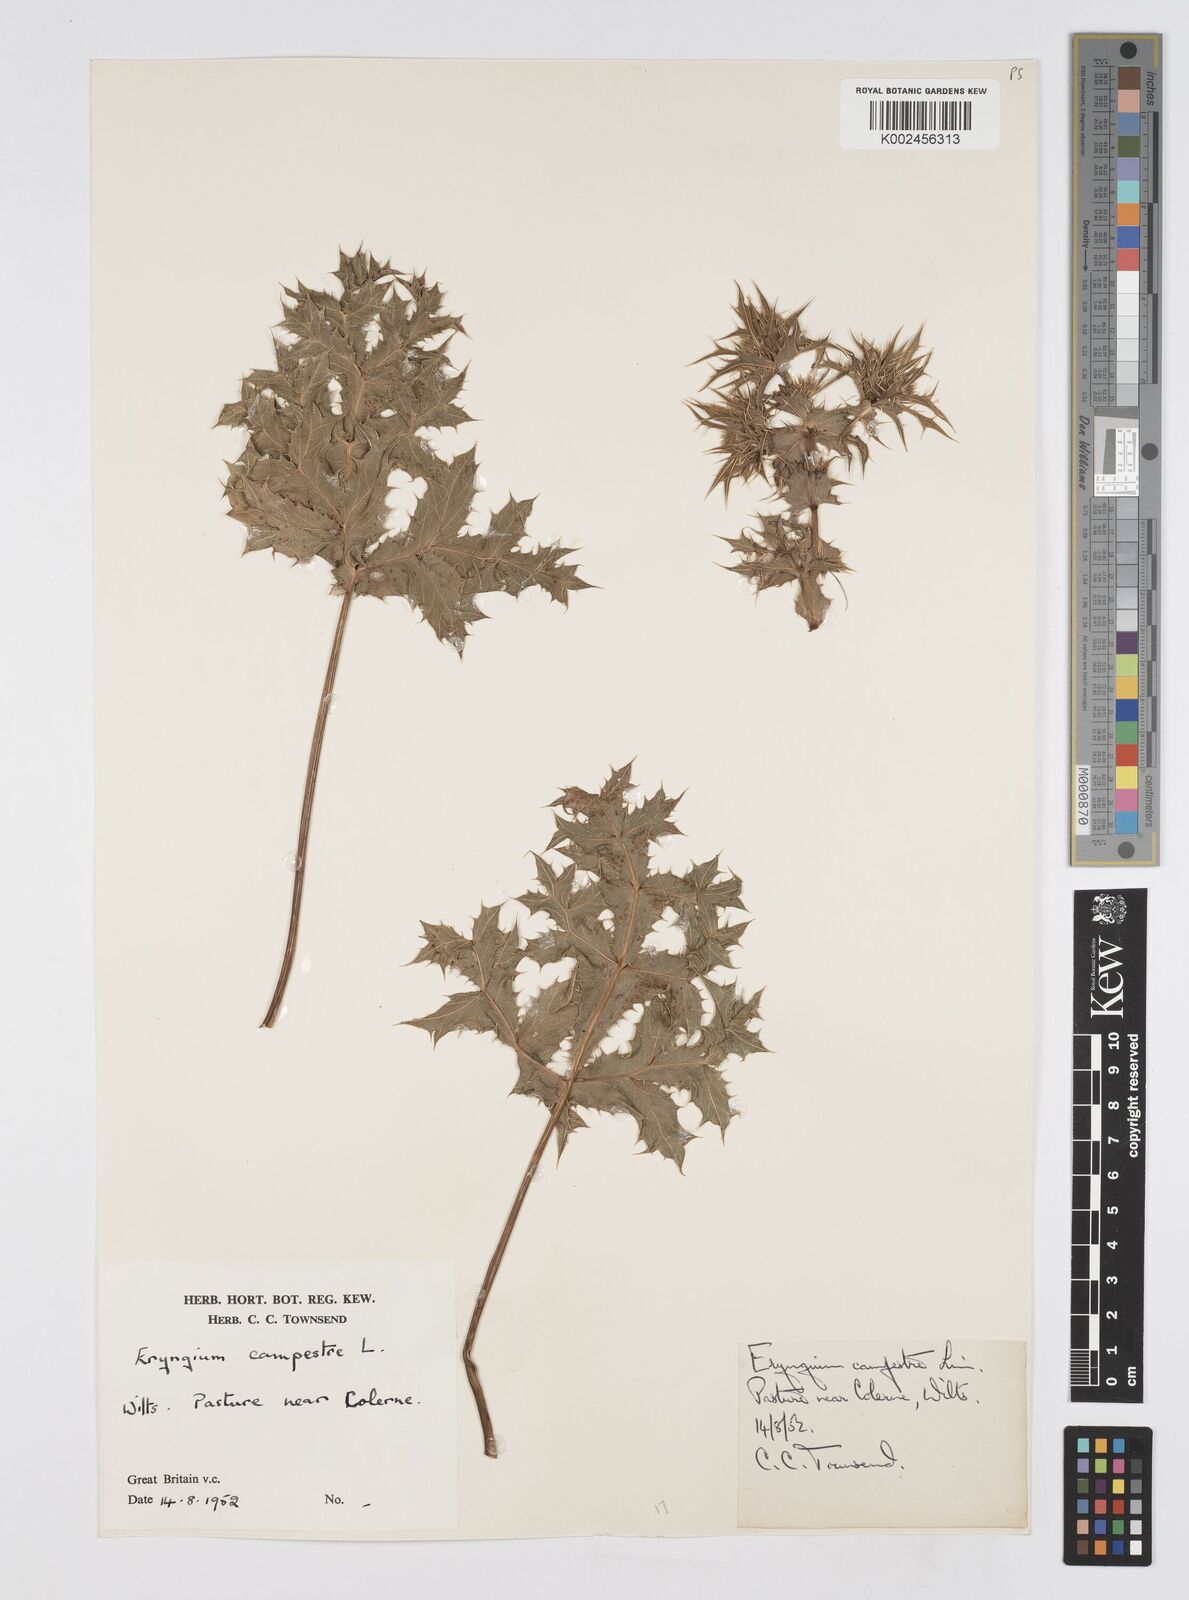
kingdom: Plantae
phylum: Tracheophyta
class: Magnoliopsida
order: Apiales
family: Apiaceae
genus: Eryngium
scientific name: Eryngium campestre
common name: Field eryngo
